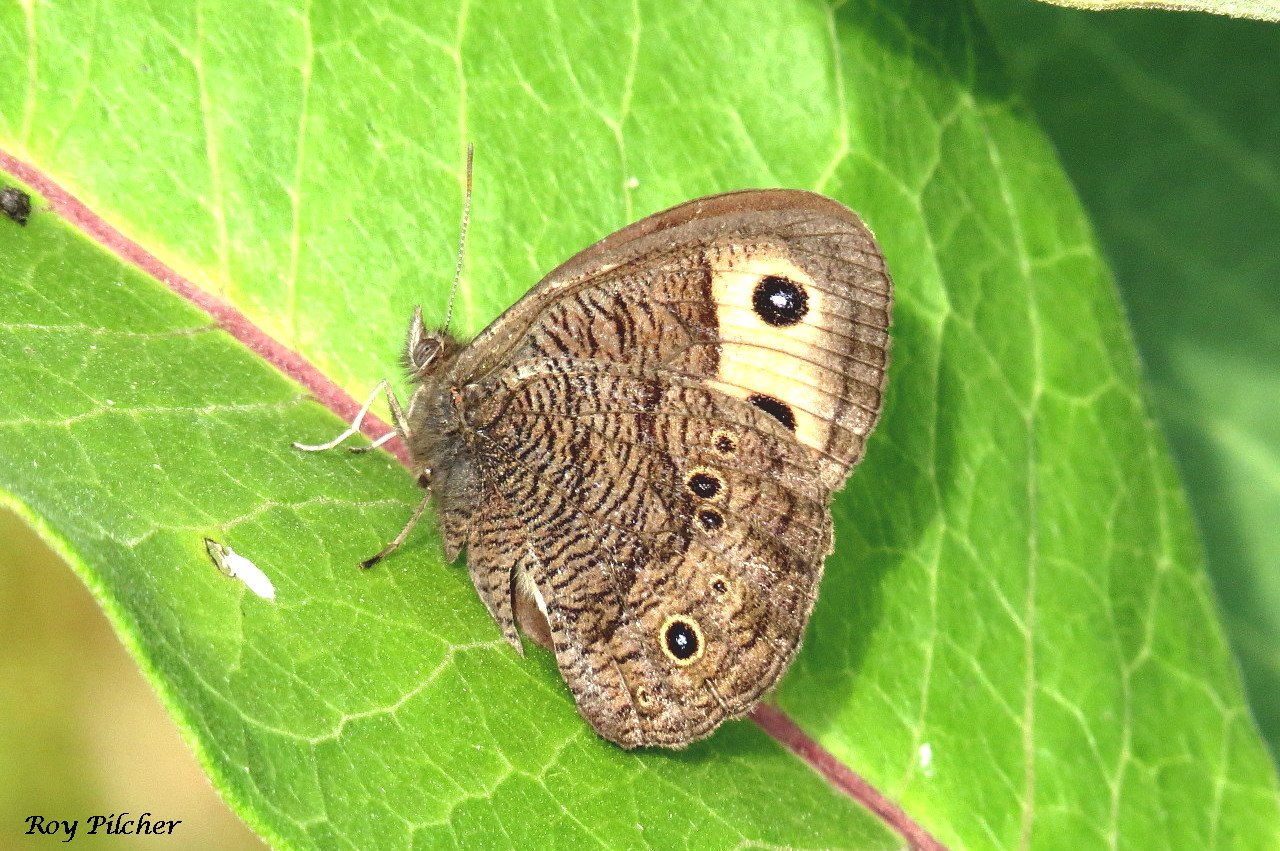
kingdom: Animalia
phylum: Arthropoda
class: Insecta
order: Lepidoptera
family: Nymphalidae
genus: Cercyonis
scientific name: Cercyonis pegala
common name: Common Wood-Nymph
